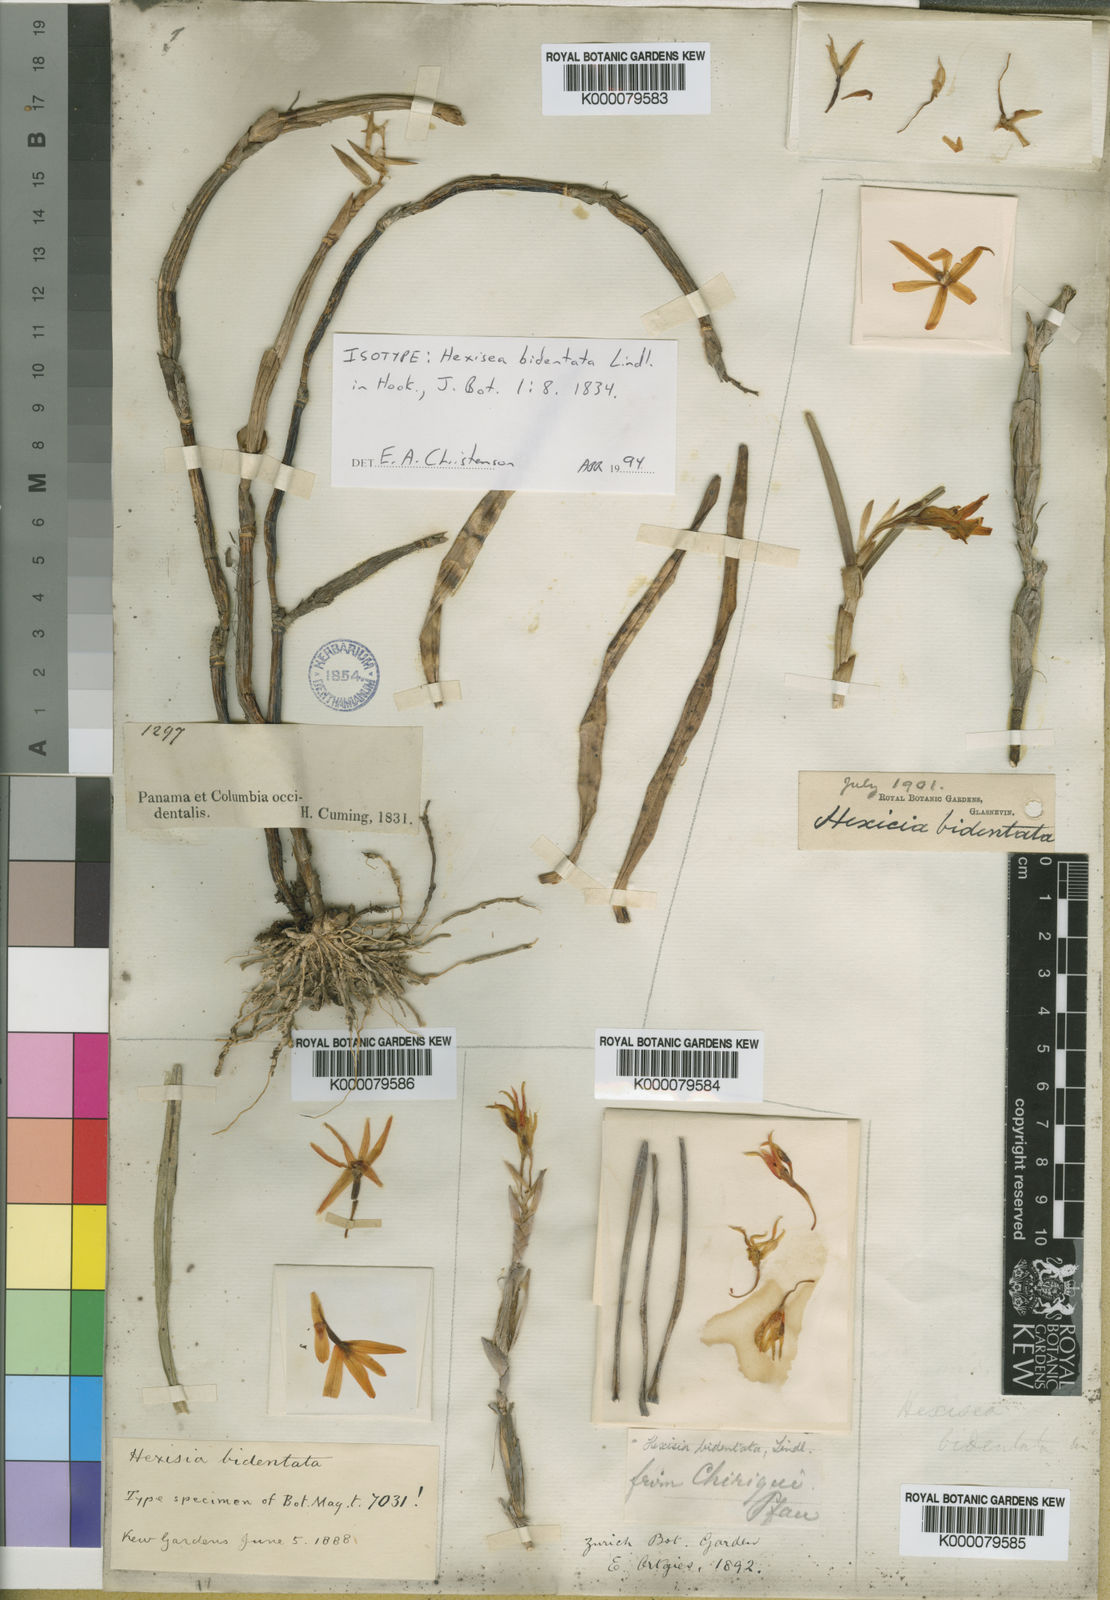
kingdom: Plantae
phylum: Tracheophyta
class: Liliopsida
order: Asparagales
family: Orchidaceae
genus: Scaphyglottis
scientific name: Scaphyglottis bidentata
